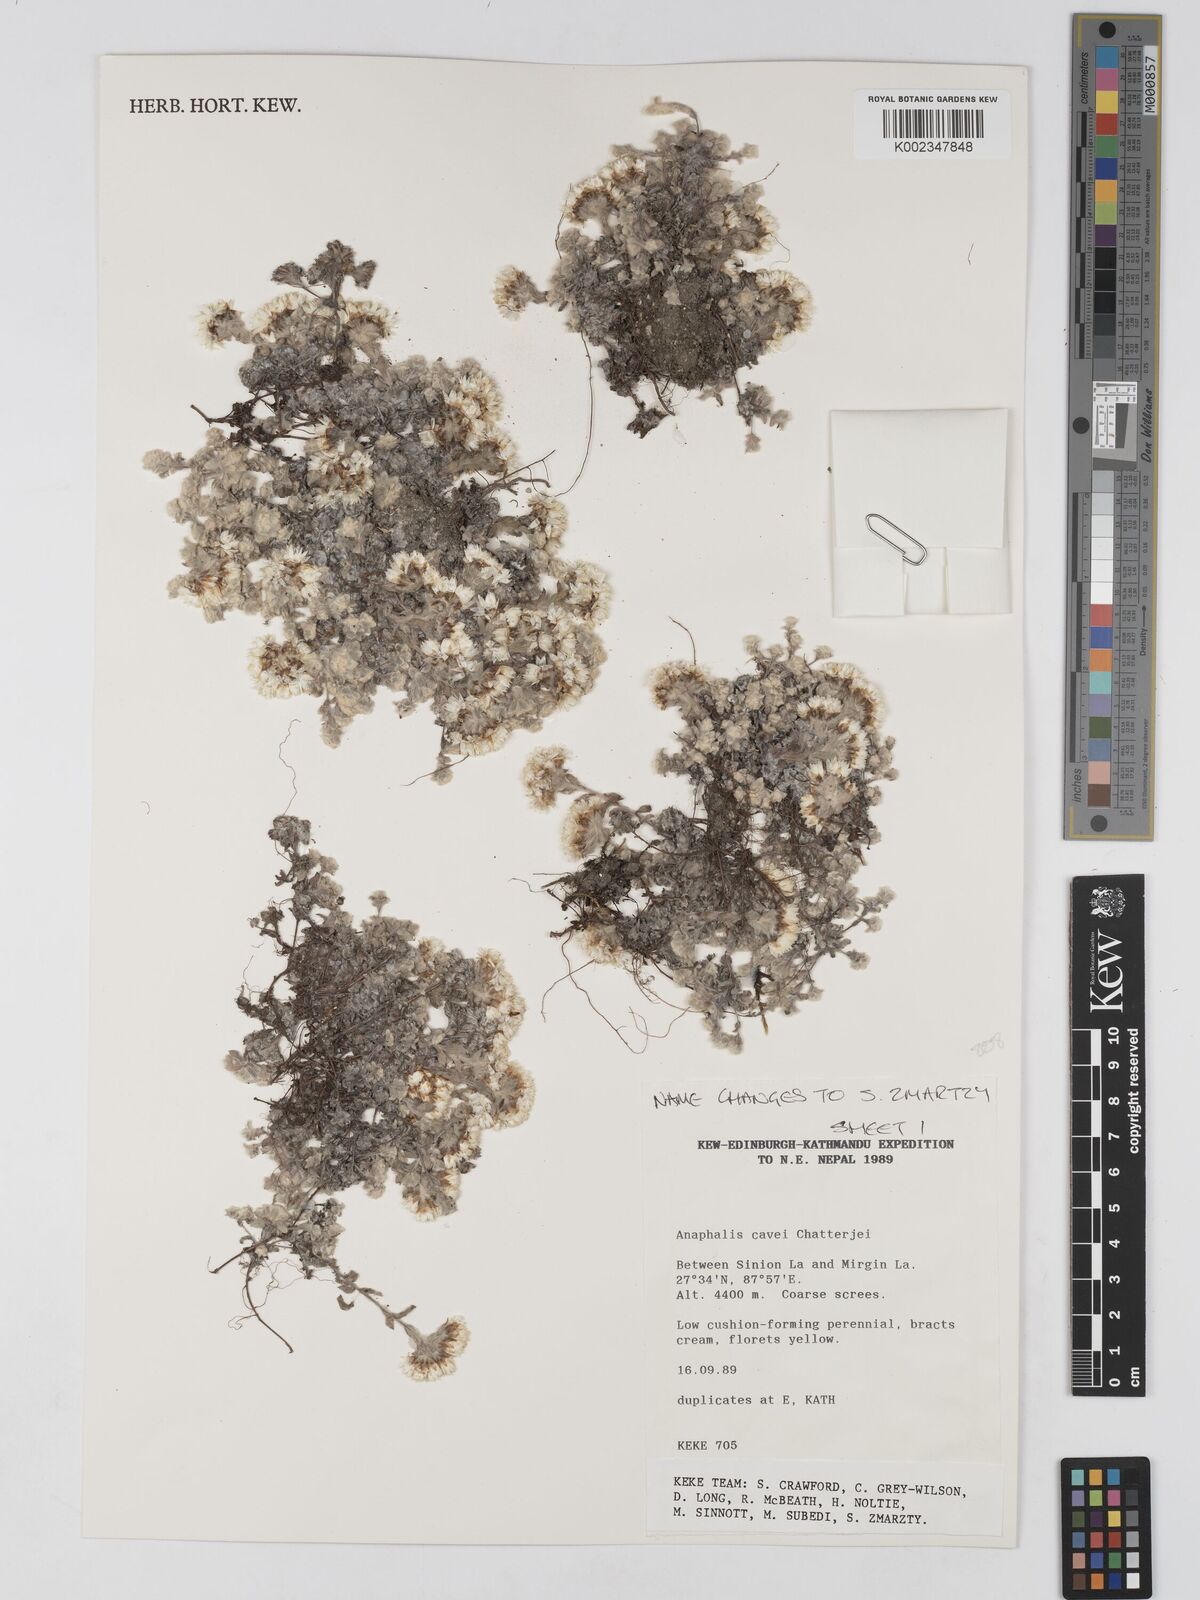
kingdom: Plantae
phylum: Tracheophyta
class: Magnoliopsida
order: Asterales
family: Asteraceae
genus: Anaphalis
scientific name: Anaphalis cavei
